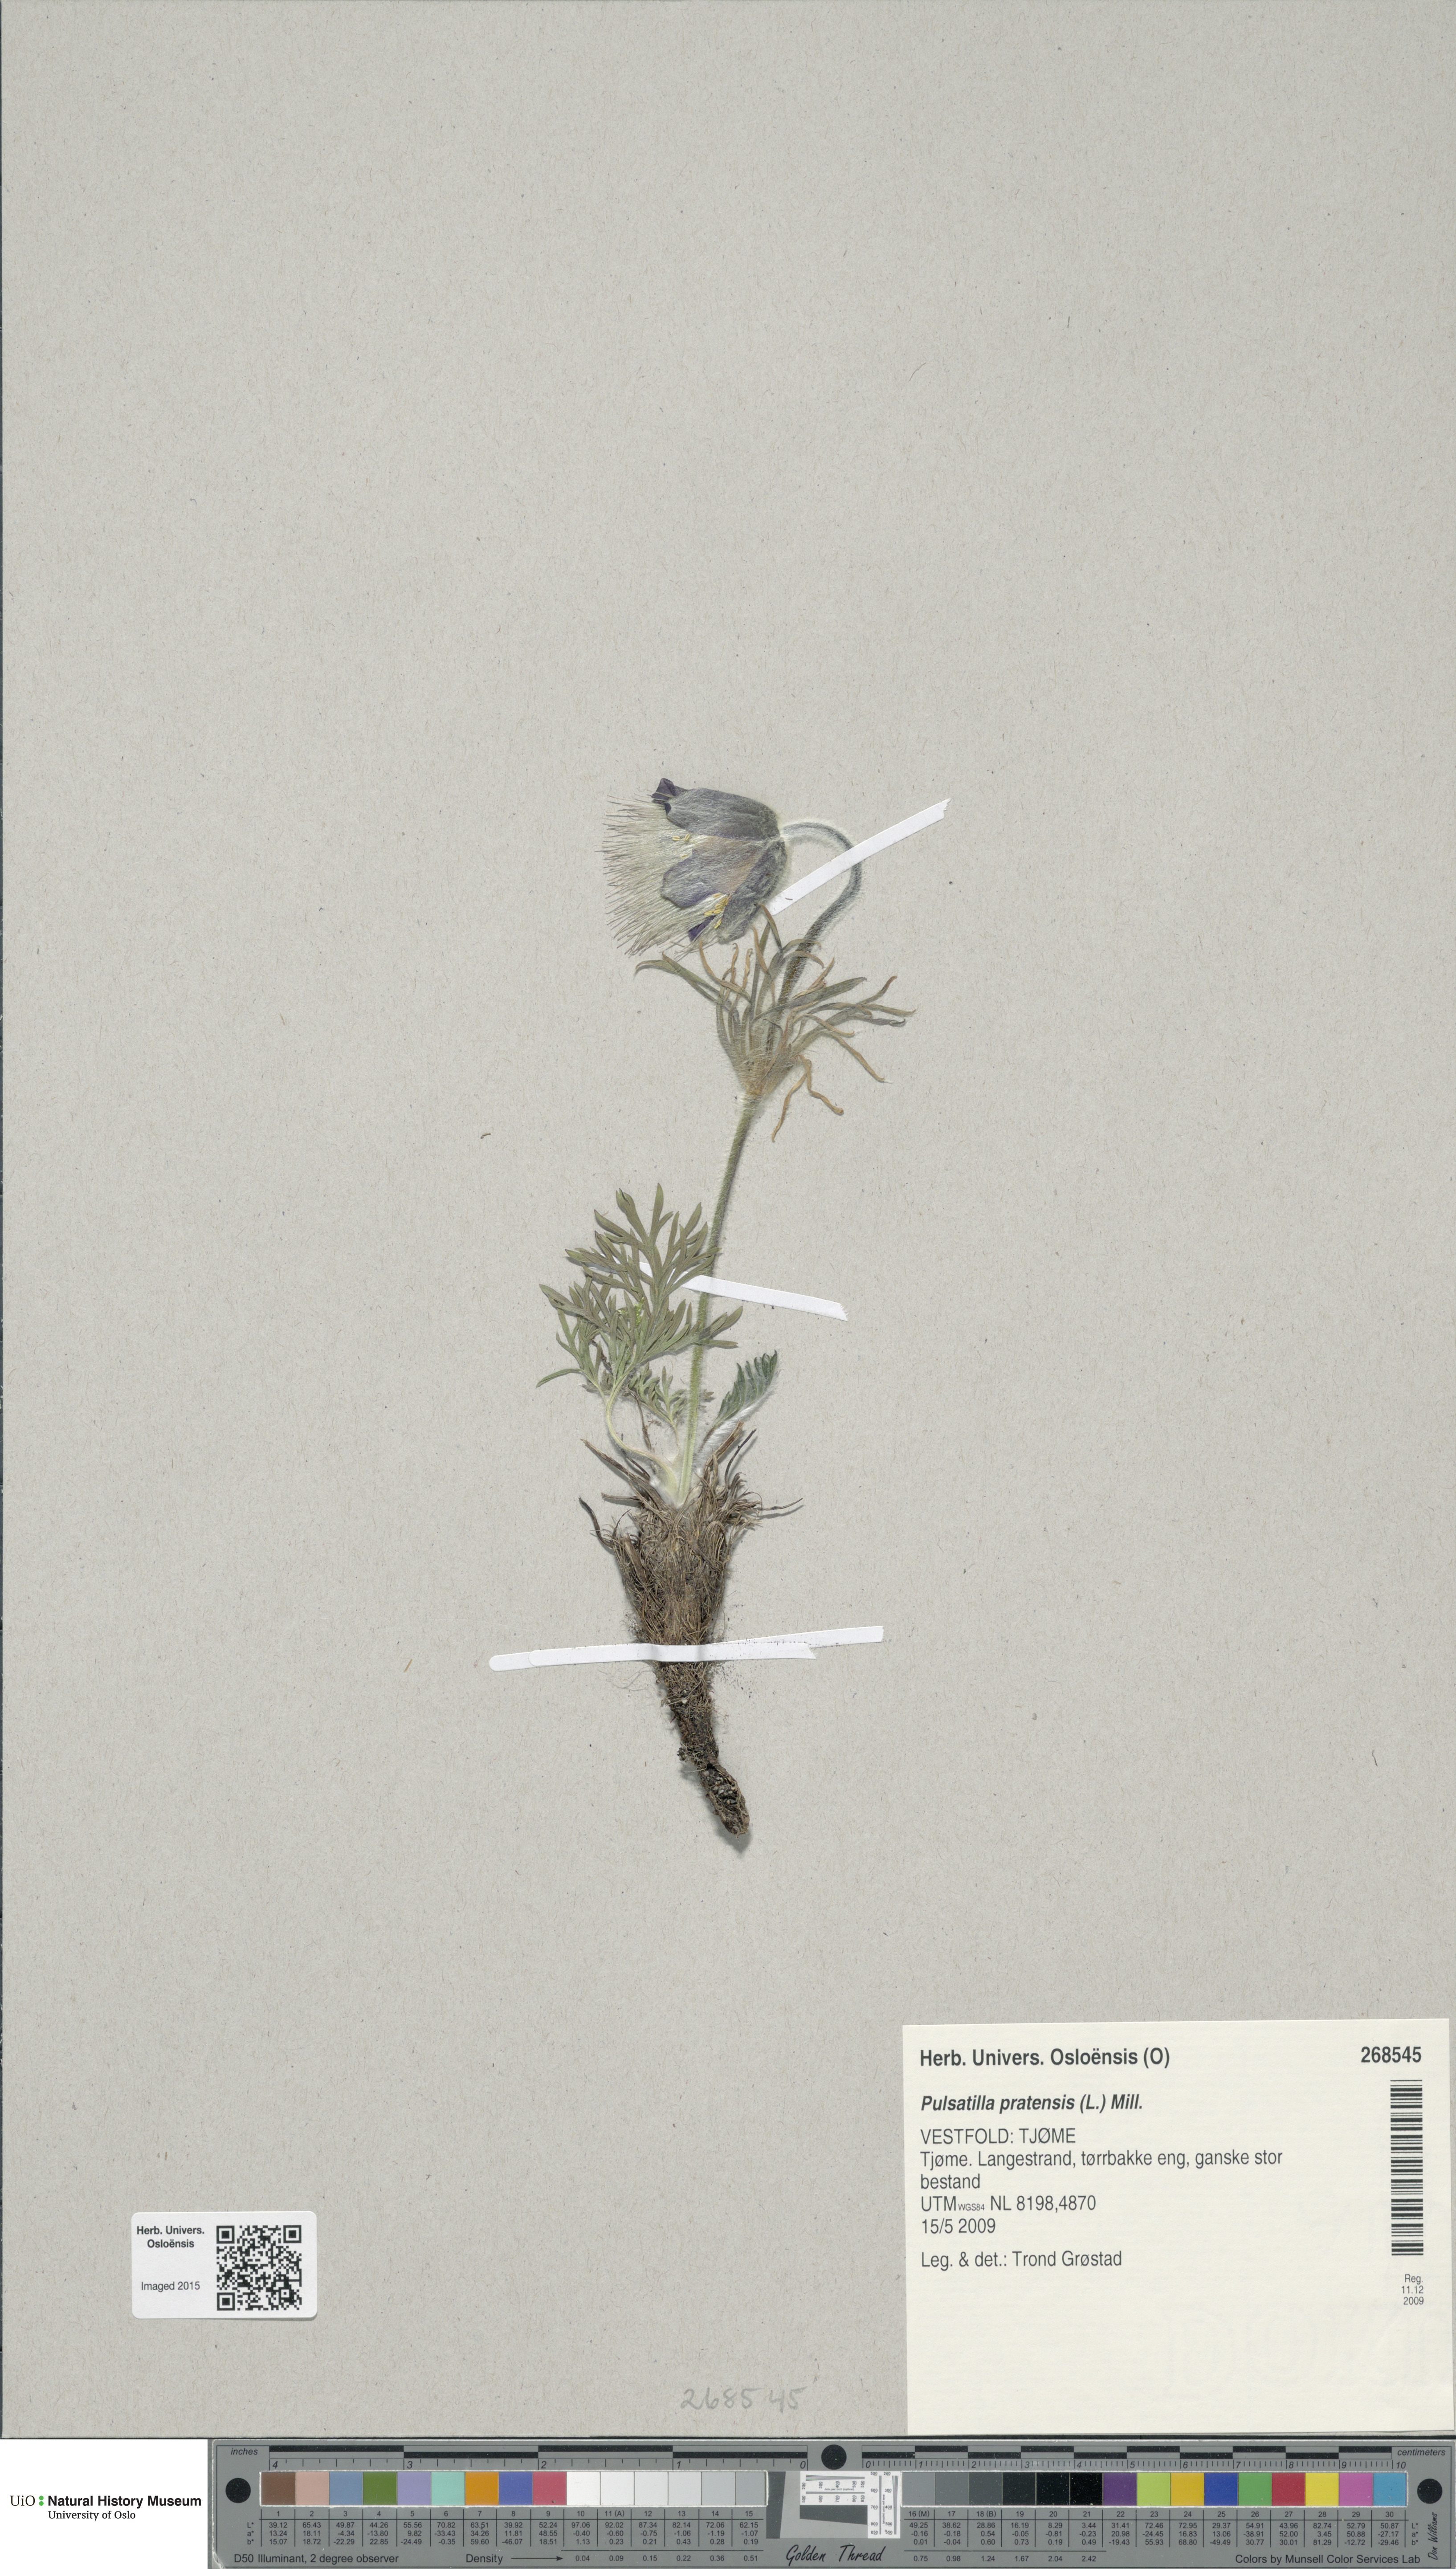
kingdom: Plantae
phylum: Tracheophyta
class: Magnoliopsida
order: Ranunculales
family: Ranunculaceae
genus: Pulsatilla
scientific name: Pulsatilla pratensis
